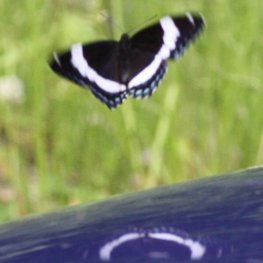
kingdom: Animalia
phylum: Arthropoda
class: Insecta
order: Lepidoptera
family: Nymphalidae
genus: Limenitis
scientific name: Limenitis arthemis
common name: Red-spotted Admiral
